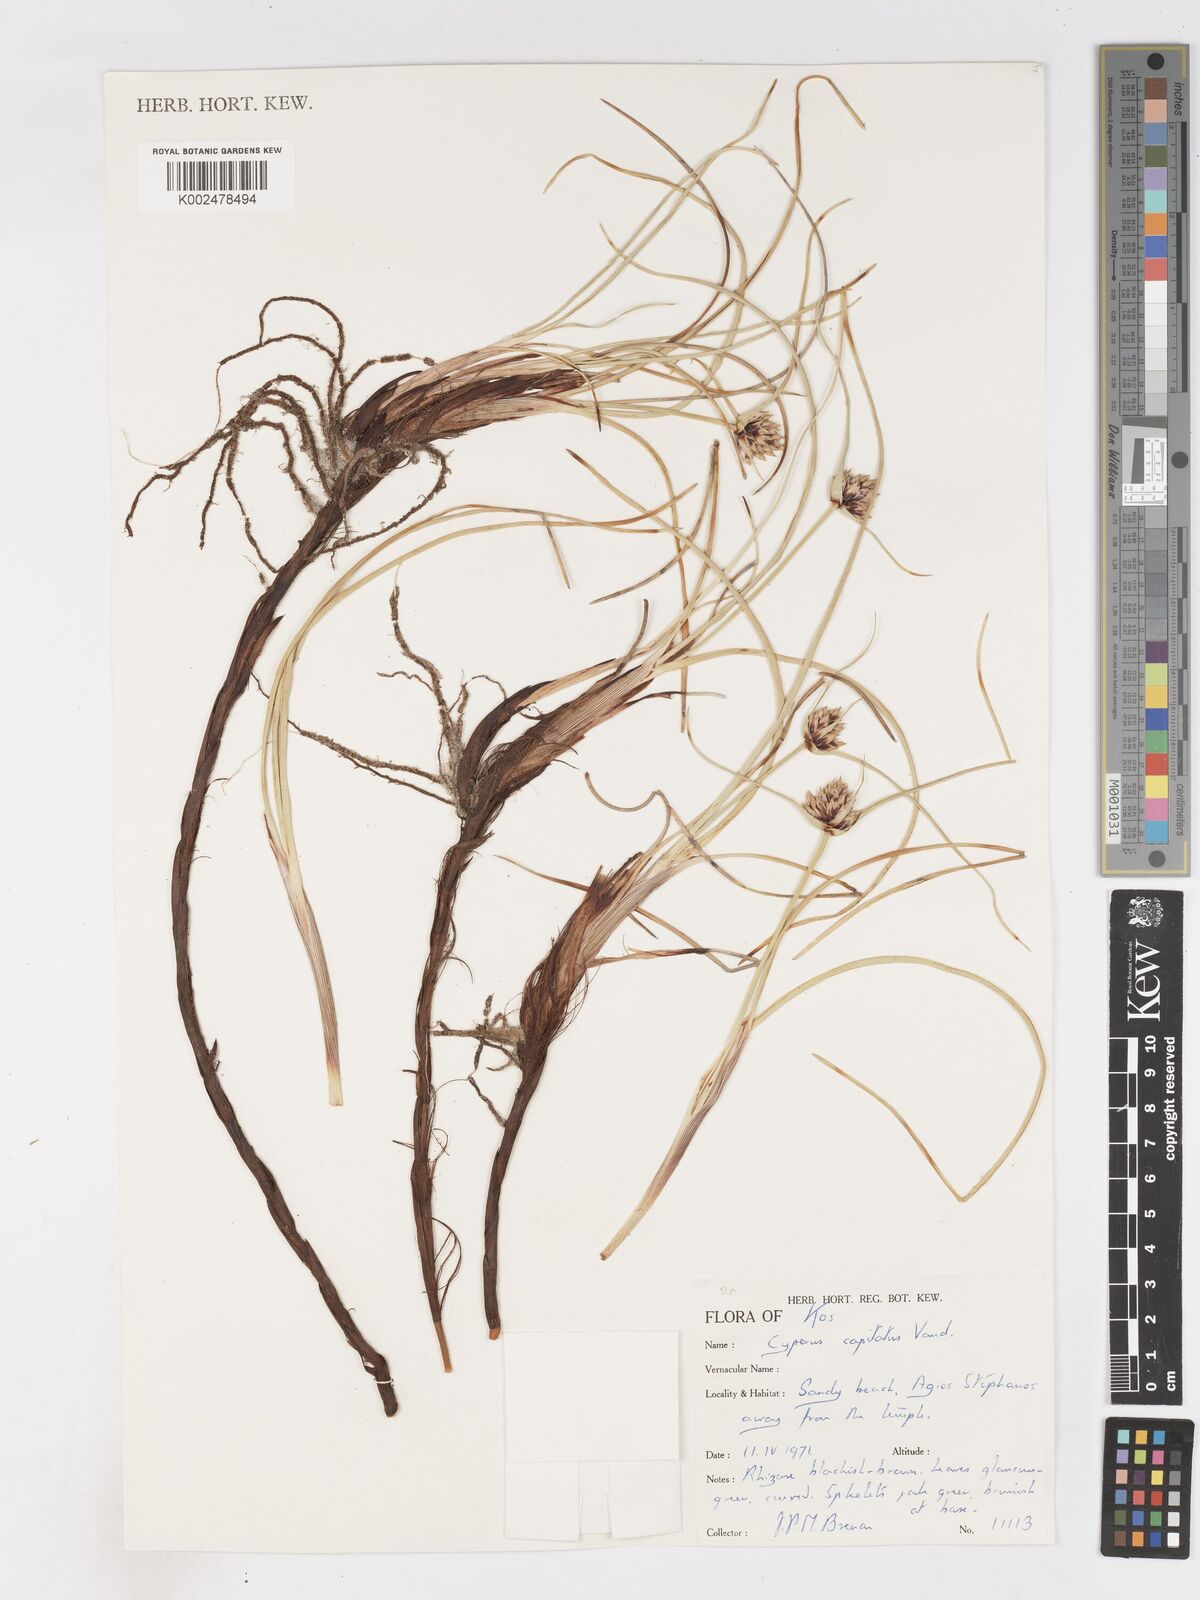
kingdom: Plantae
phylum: Tracheophyta
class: Liliopsida
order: Poales
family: Cyperaceae
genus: Cyperus
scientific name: Cyperus capitatus
